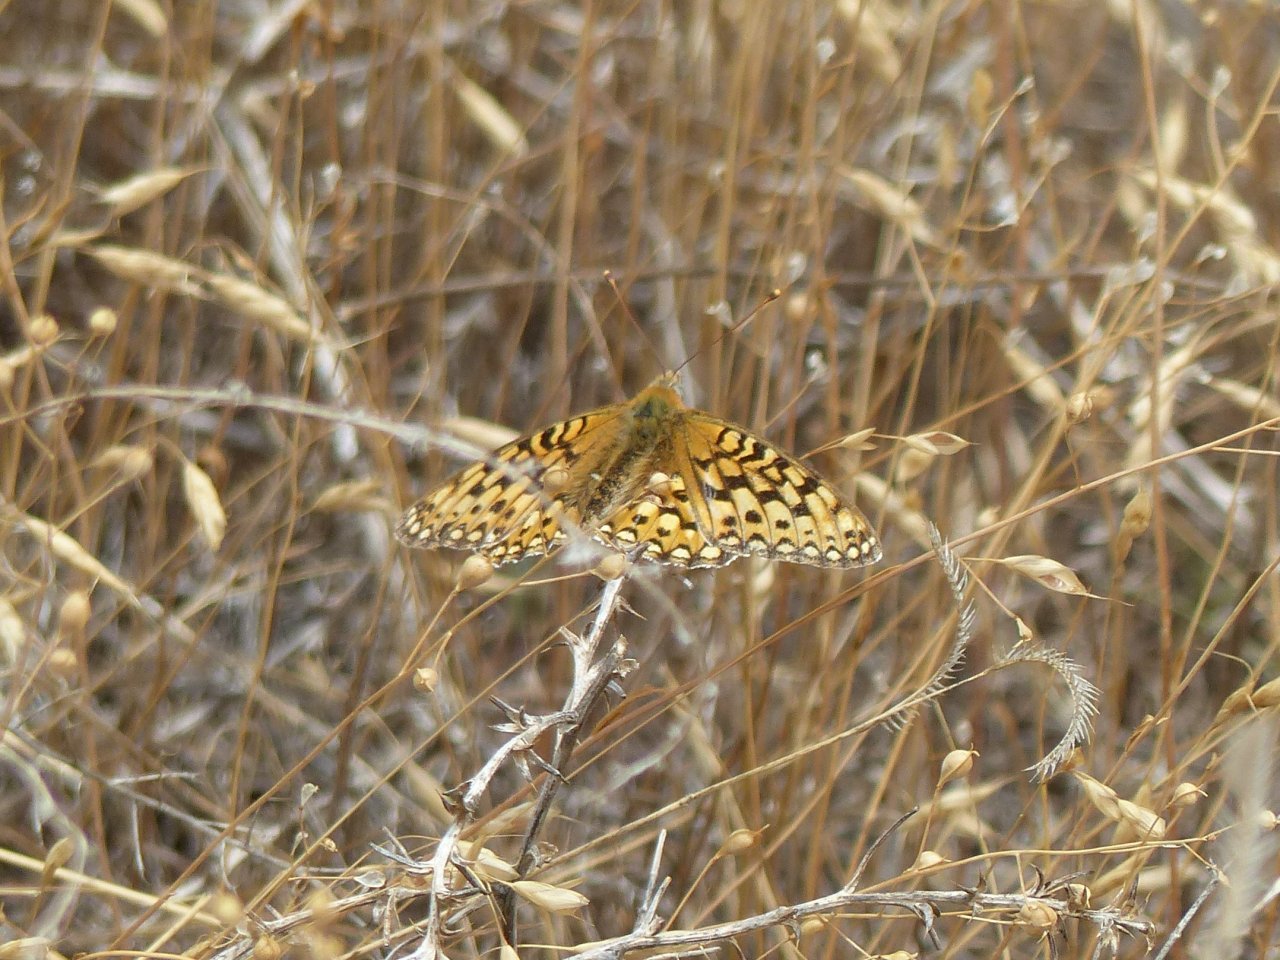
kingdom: Animalia
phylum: Arthropoda
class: Insecta
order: Lepidoptera
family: Nymphalidae
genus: Speyeria
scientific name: Speyeria zerene
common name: Zerene Fritillary
